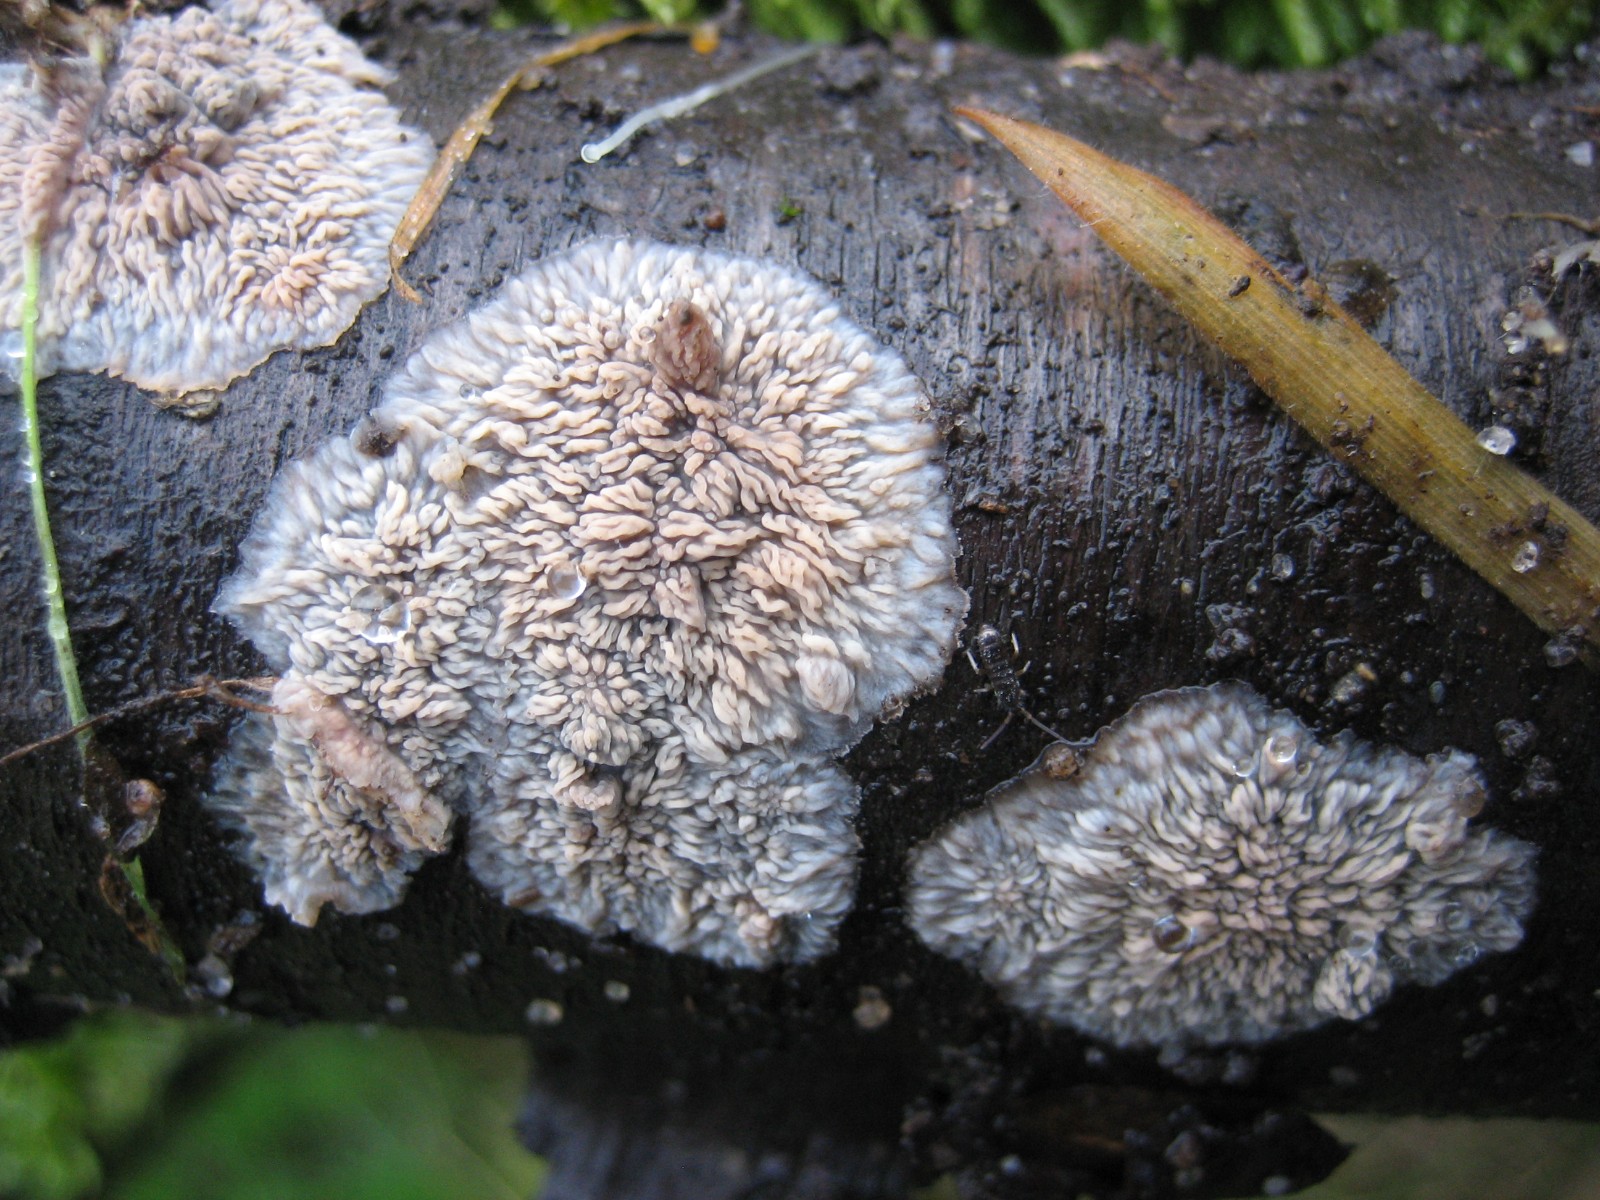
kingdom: Fungi
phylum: Basidiomycota
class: Agaricomycetes
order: Polyporales
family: Meruliaceae
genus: Phlebia
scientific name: Phlebia radiata
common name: stråle-åresvamp
